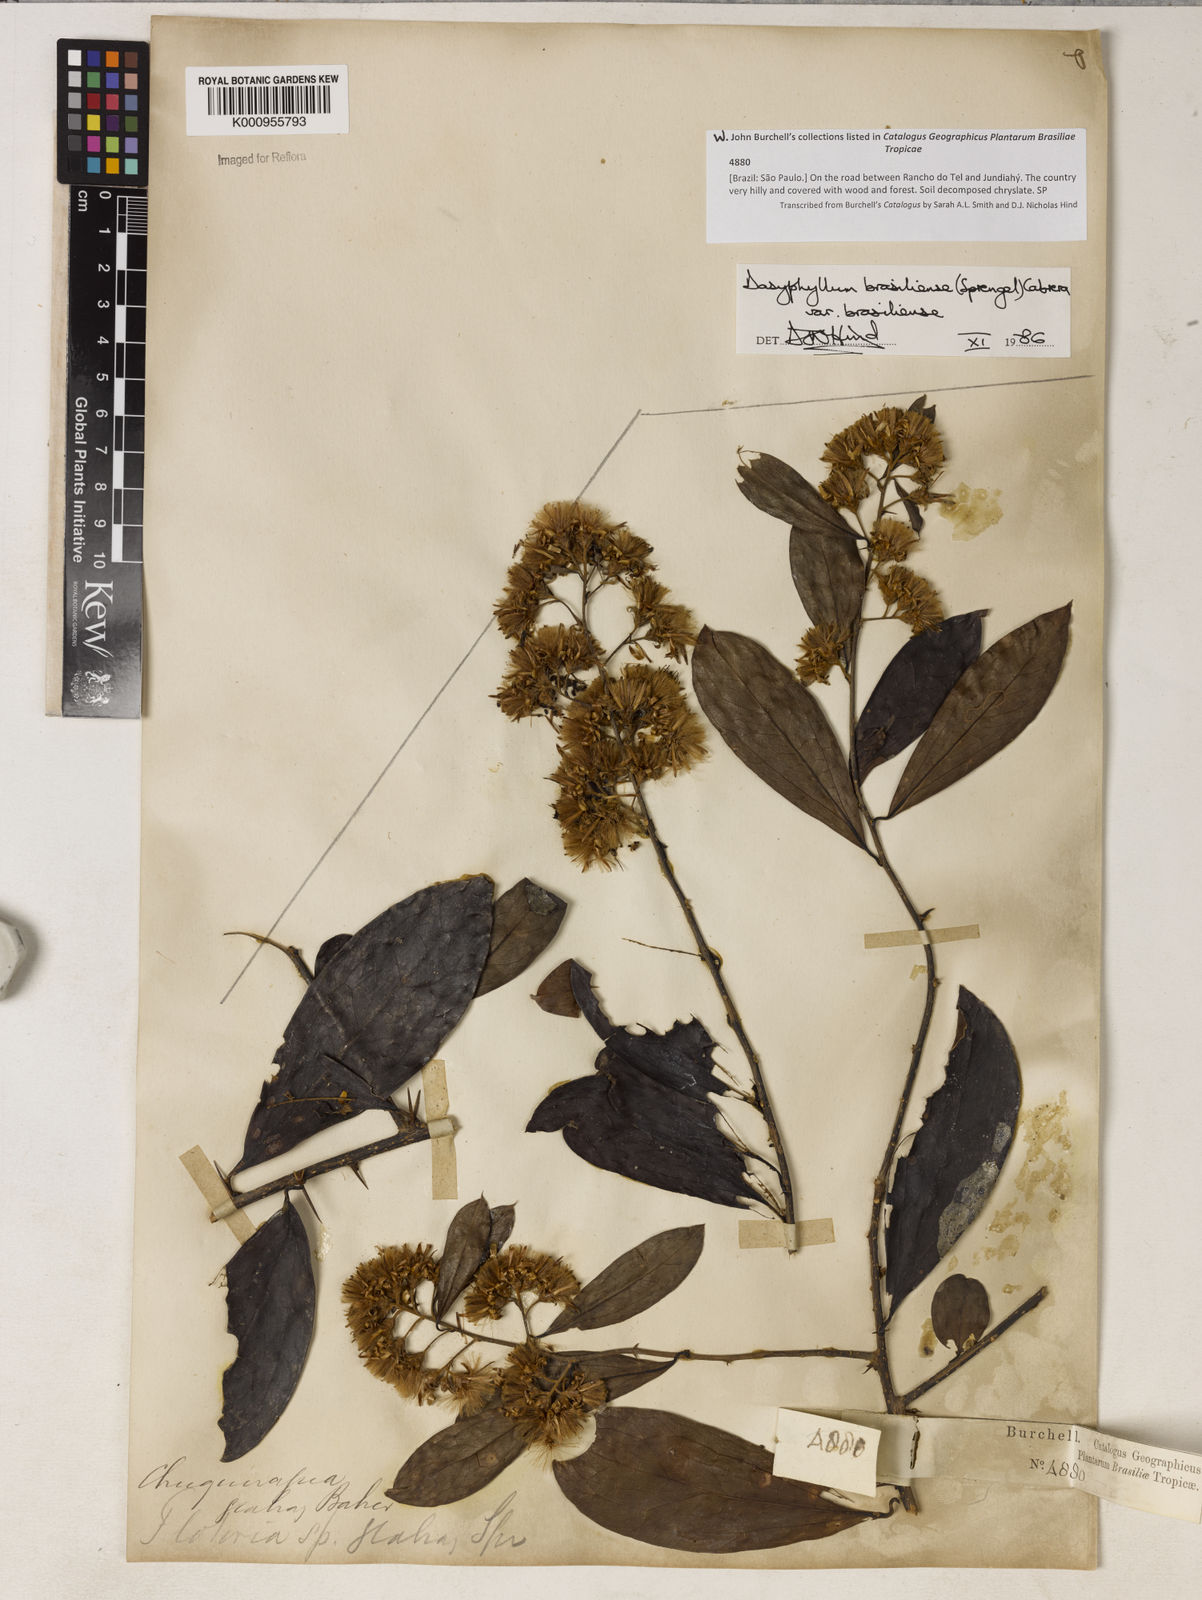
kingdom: Plantae
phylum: Tracheophyta
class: Magnoliopsida
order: Asterales
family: Asteraceae
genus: Dasyphyllum
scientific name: Dasyphyllum brasiliense
